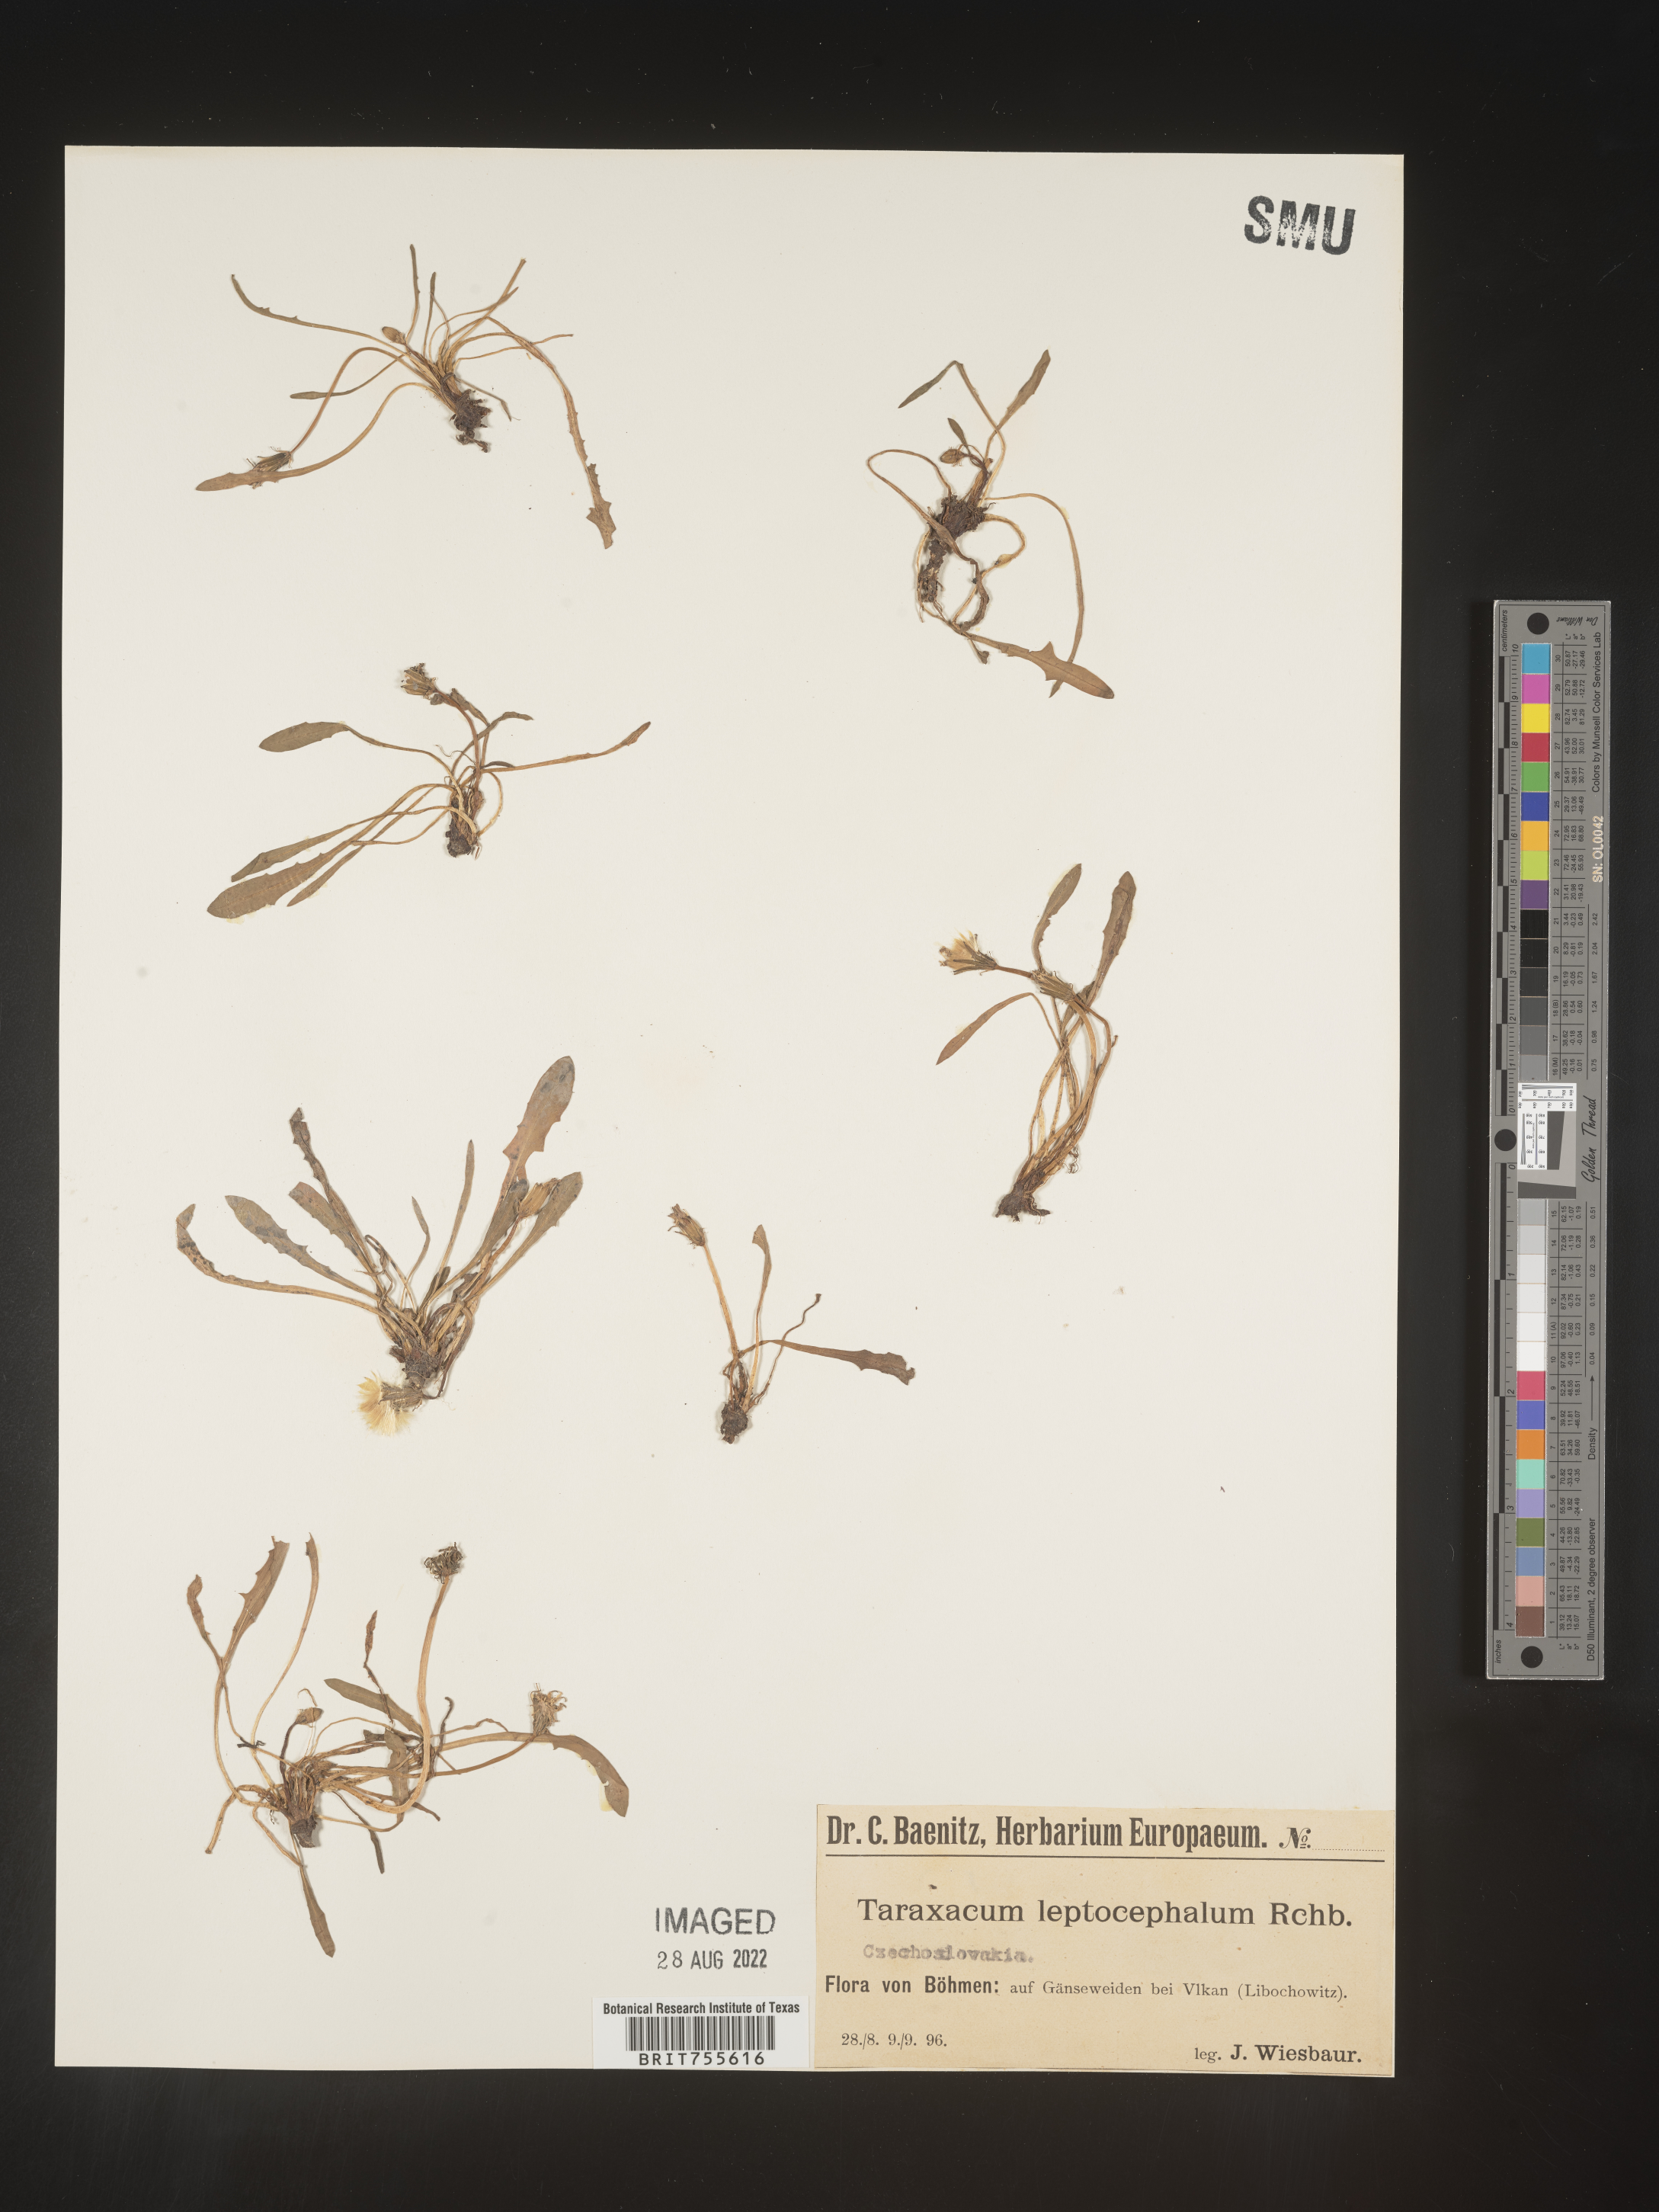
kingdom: Plantae
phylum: Tracheophyta
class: Magnoliopsida
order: Asterales
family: Asteraceae
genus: Taraxacum
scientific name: Taraxacum
